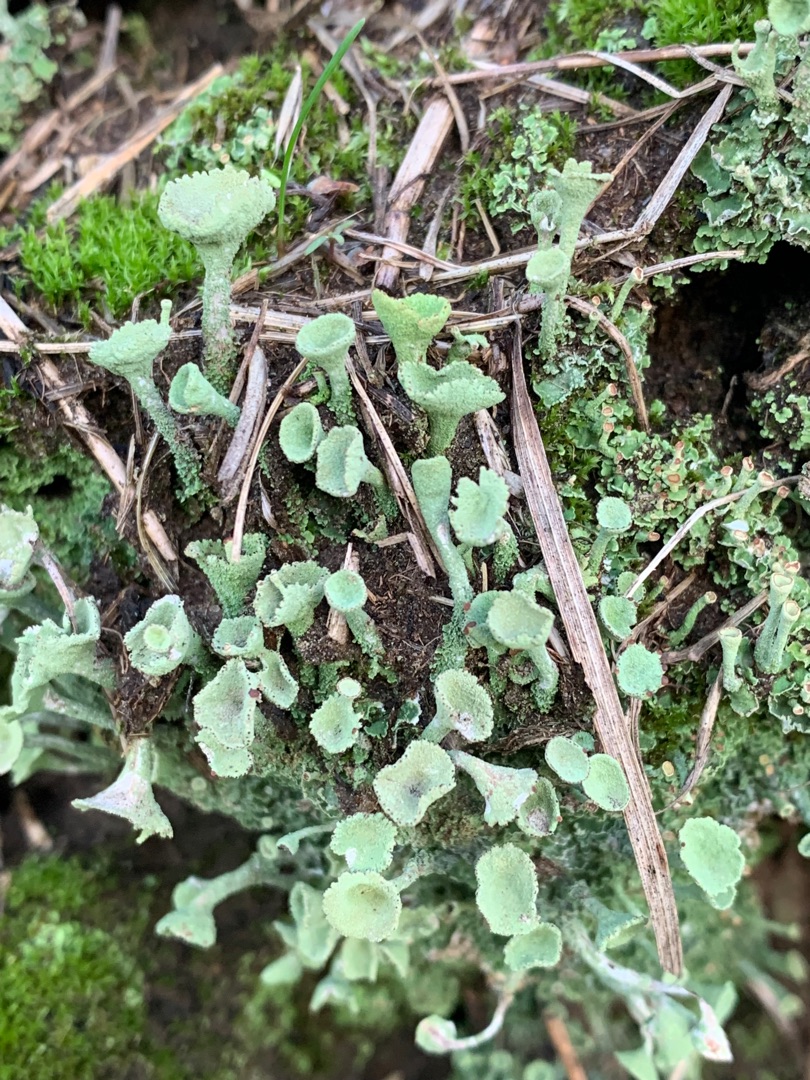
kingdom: Fungi
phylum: Ascomycota
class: Lecanoromycetes
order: Lecanorales
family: Cladoniaceae
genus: Cladonia
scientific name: Cladonia fimbriata
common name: Bleggrøn bægerlav
